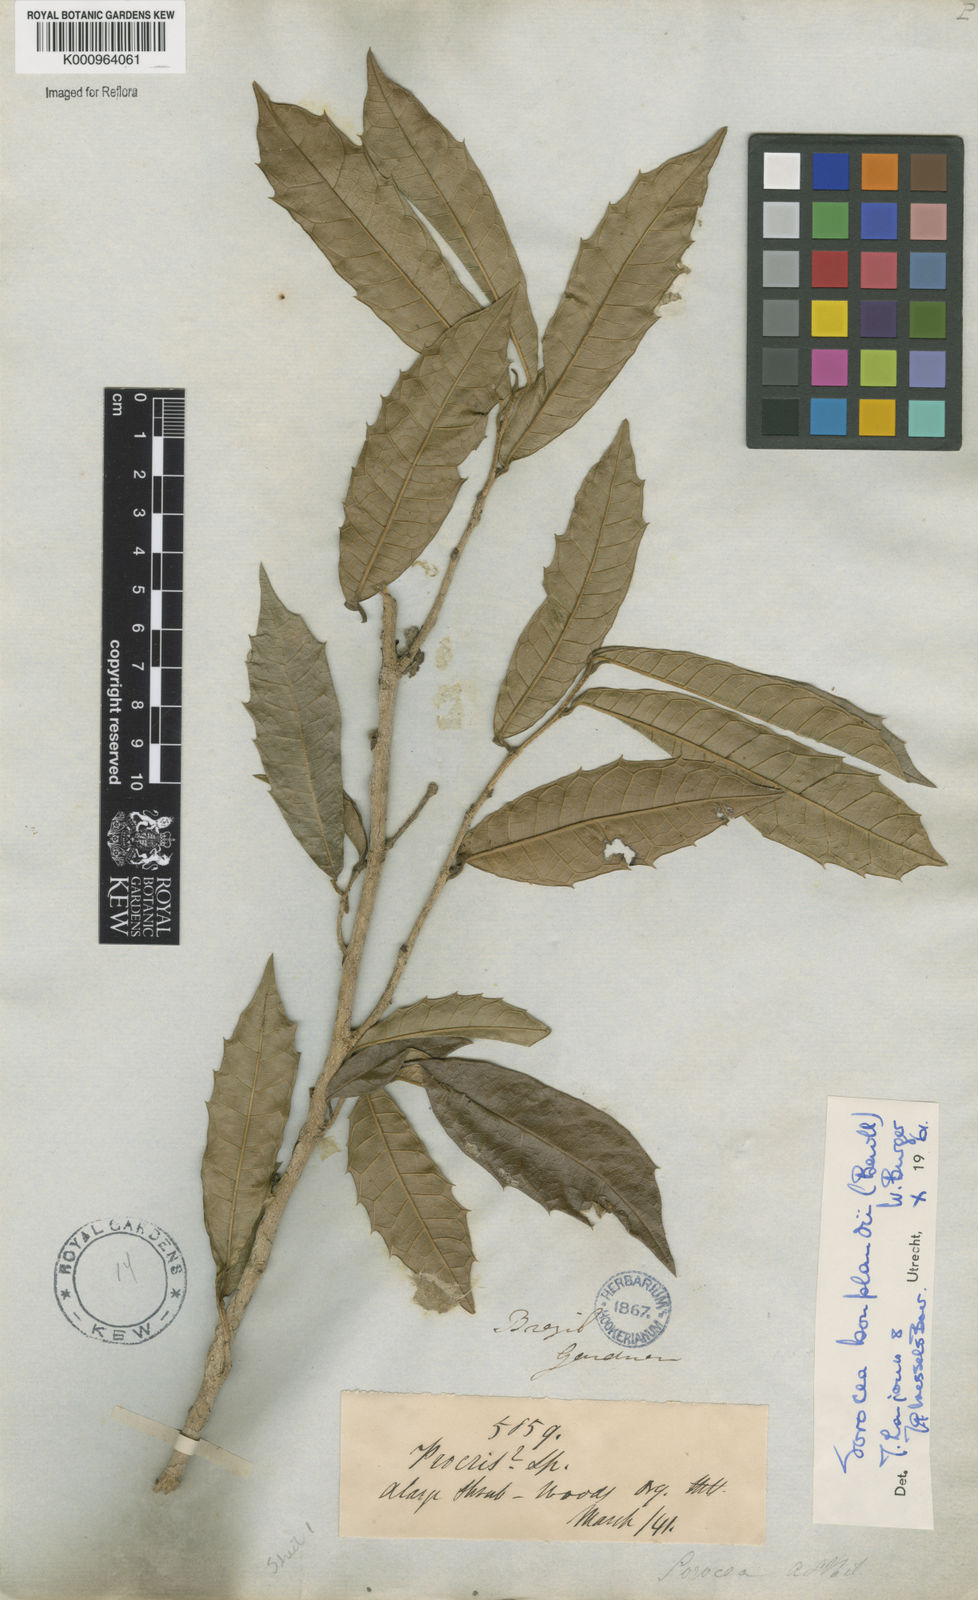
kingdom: Plantae
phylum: Tracheophyta
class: Magnoliopsida
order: Rosales
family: Moraceae
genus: Sorocea
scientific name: Sorocea
